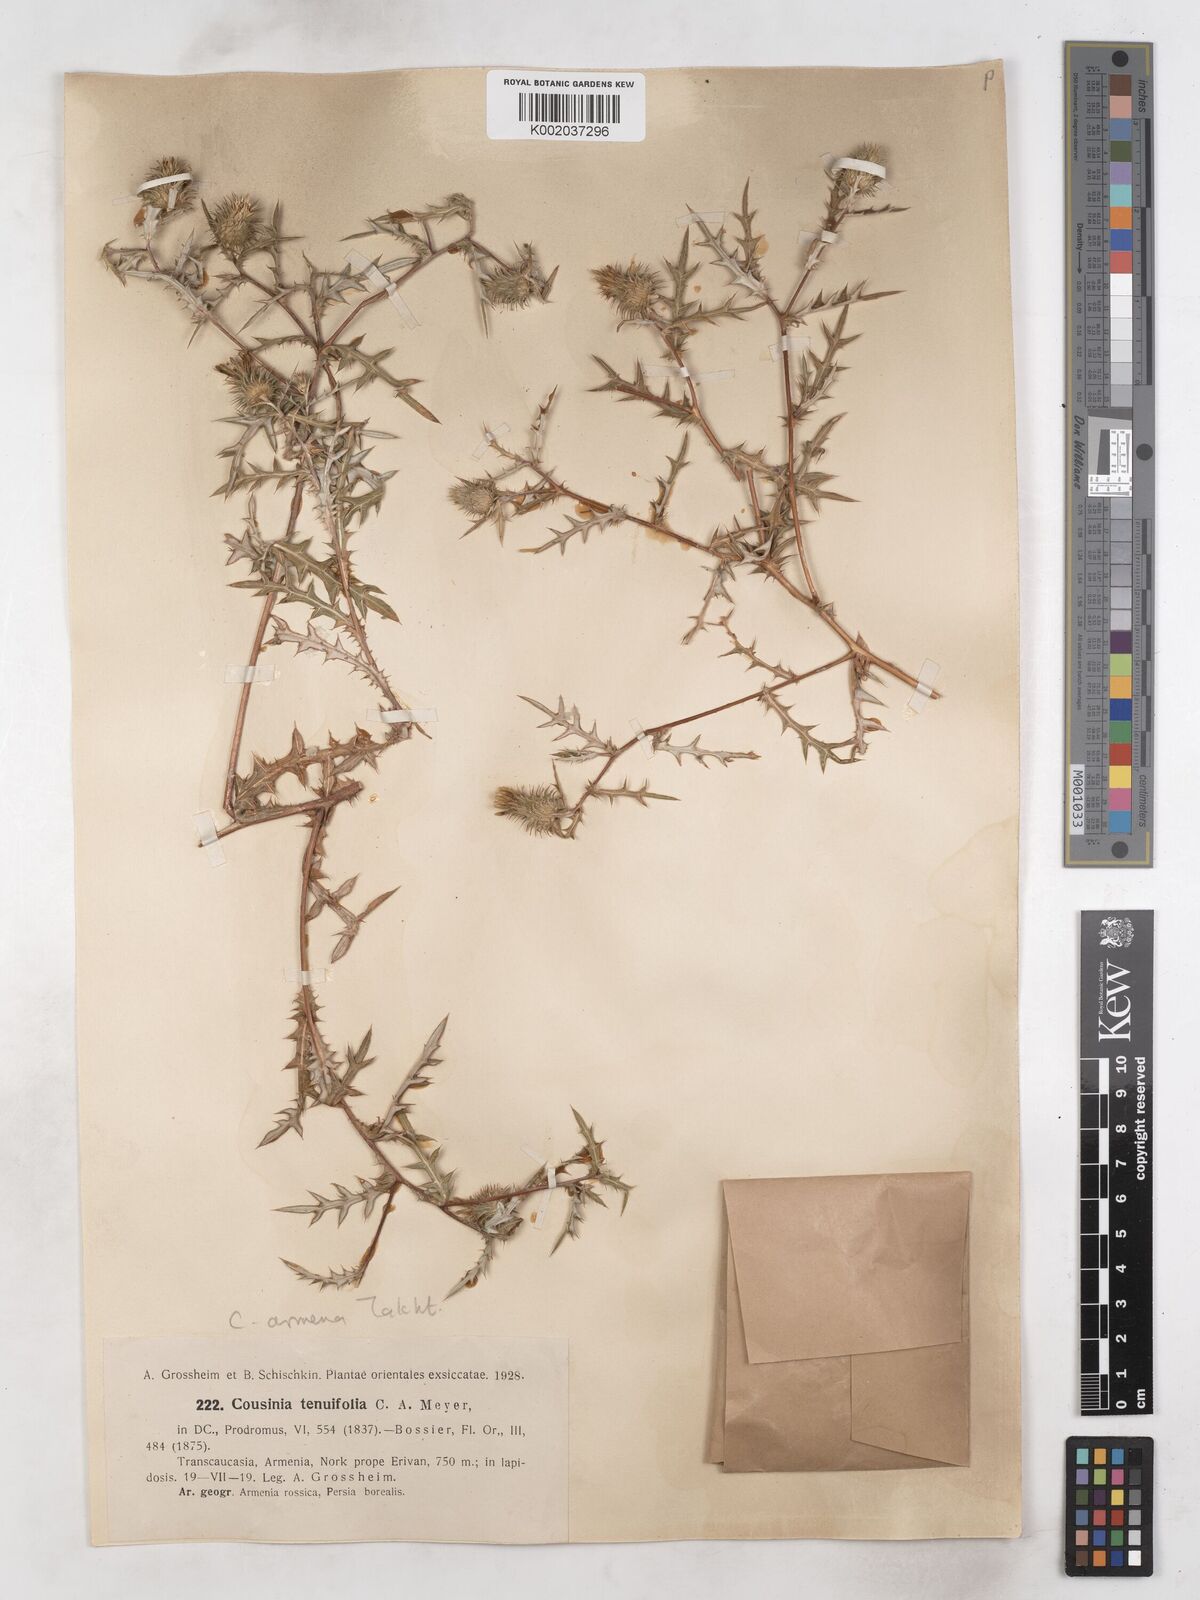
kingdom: Plantae
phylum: Tracheophyta
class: Magnoliopsida
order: Asterales
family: Asteraceae
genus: Cousinia
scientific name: Cousinia armena
